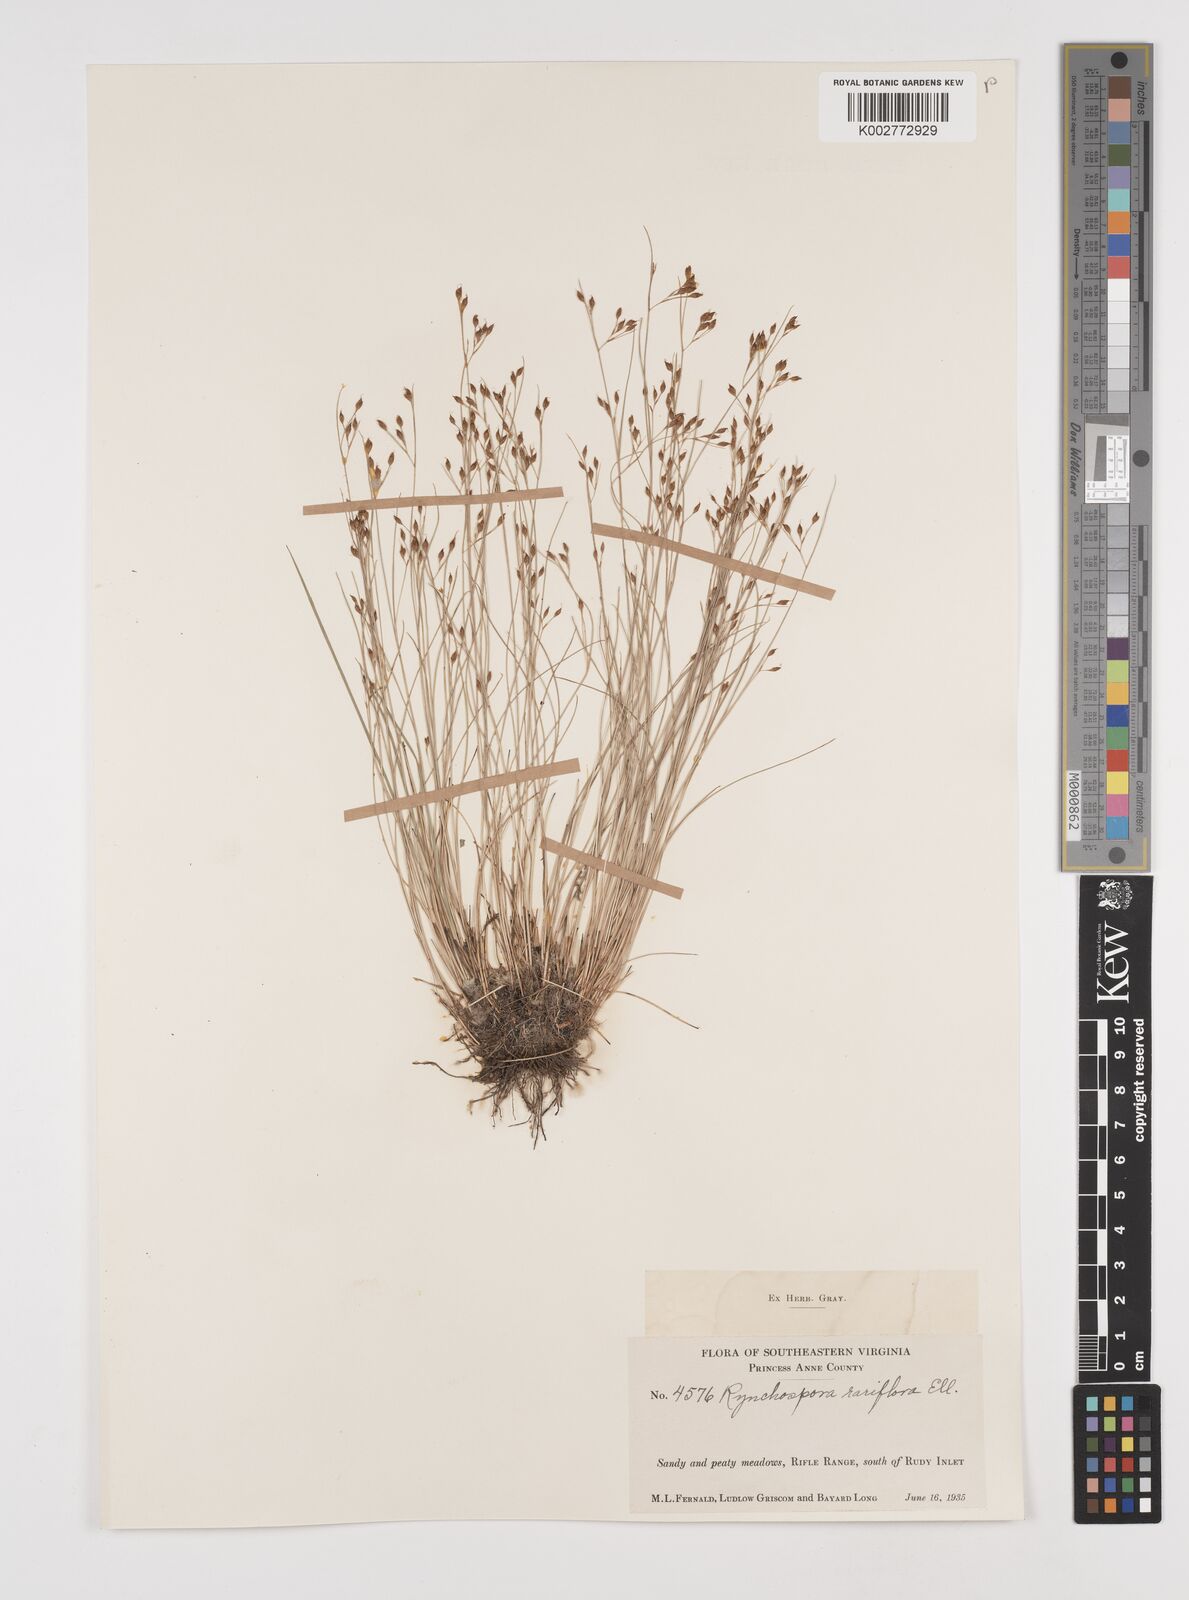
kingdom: Plantae
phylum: Tracheophyta
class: Liliopsida
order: Poales
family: Cyperaceae
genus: Rhynchospora
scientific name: Rhynchospora rariflora
